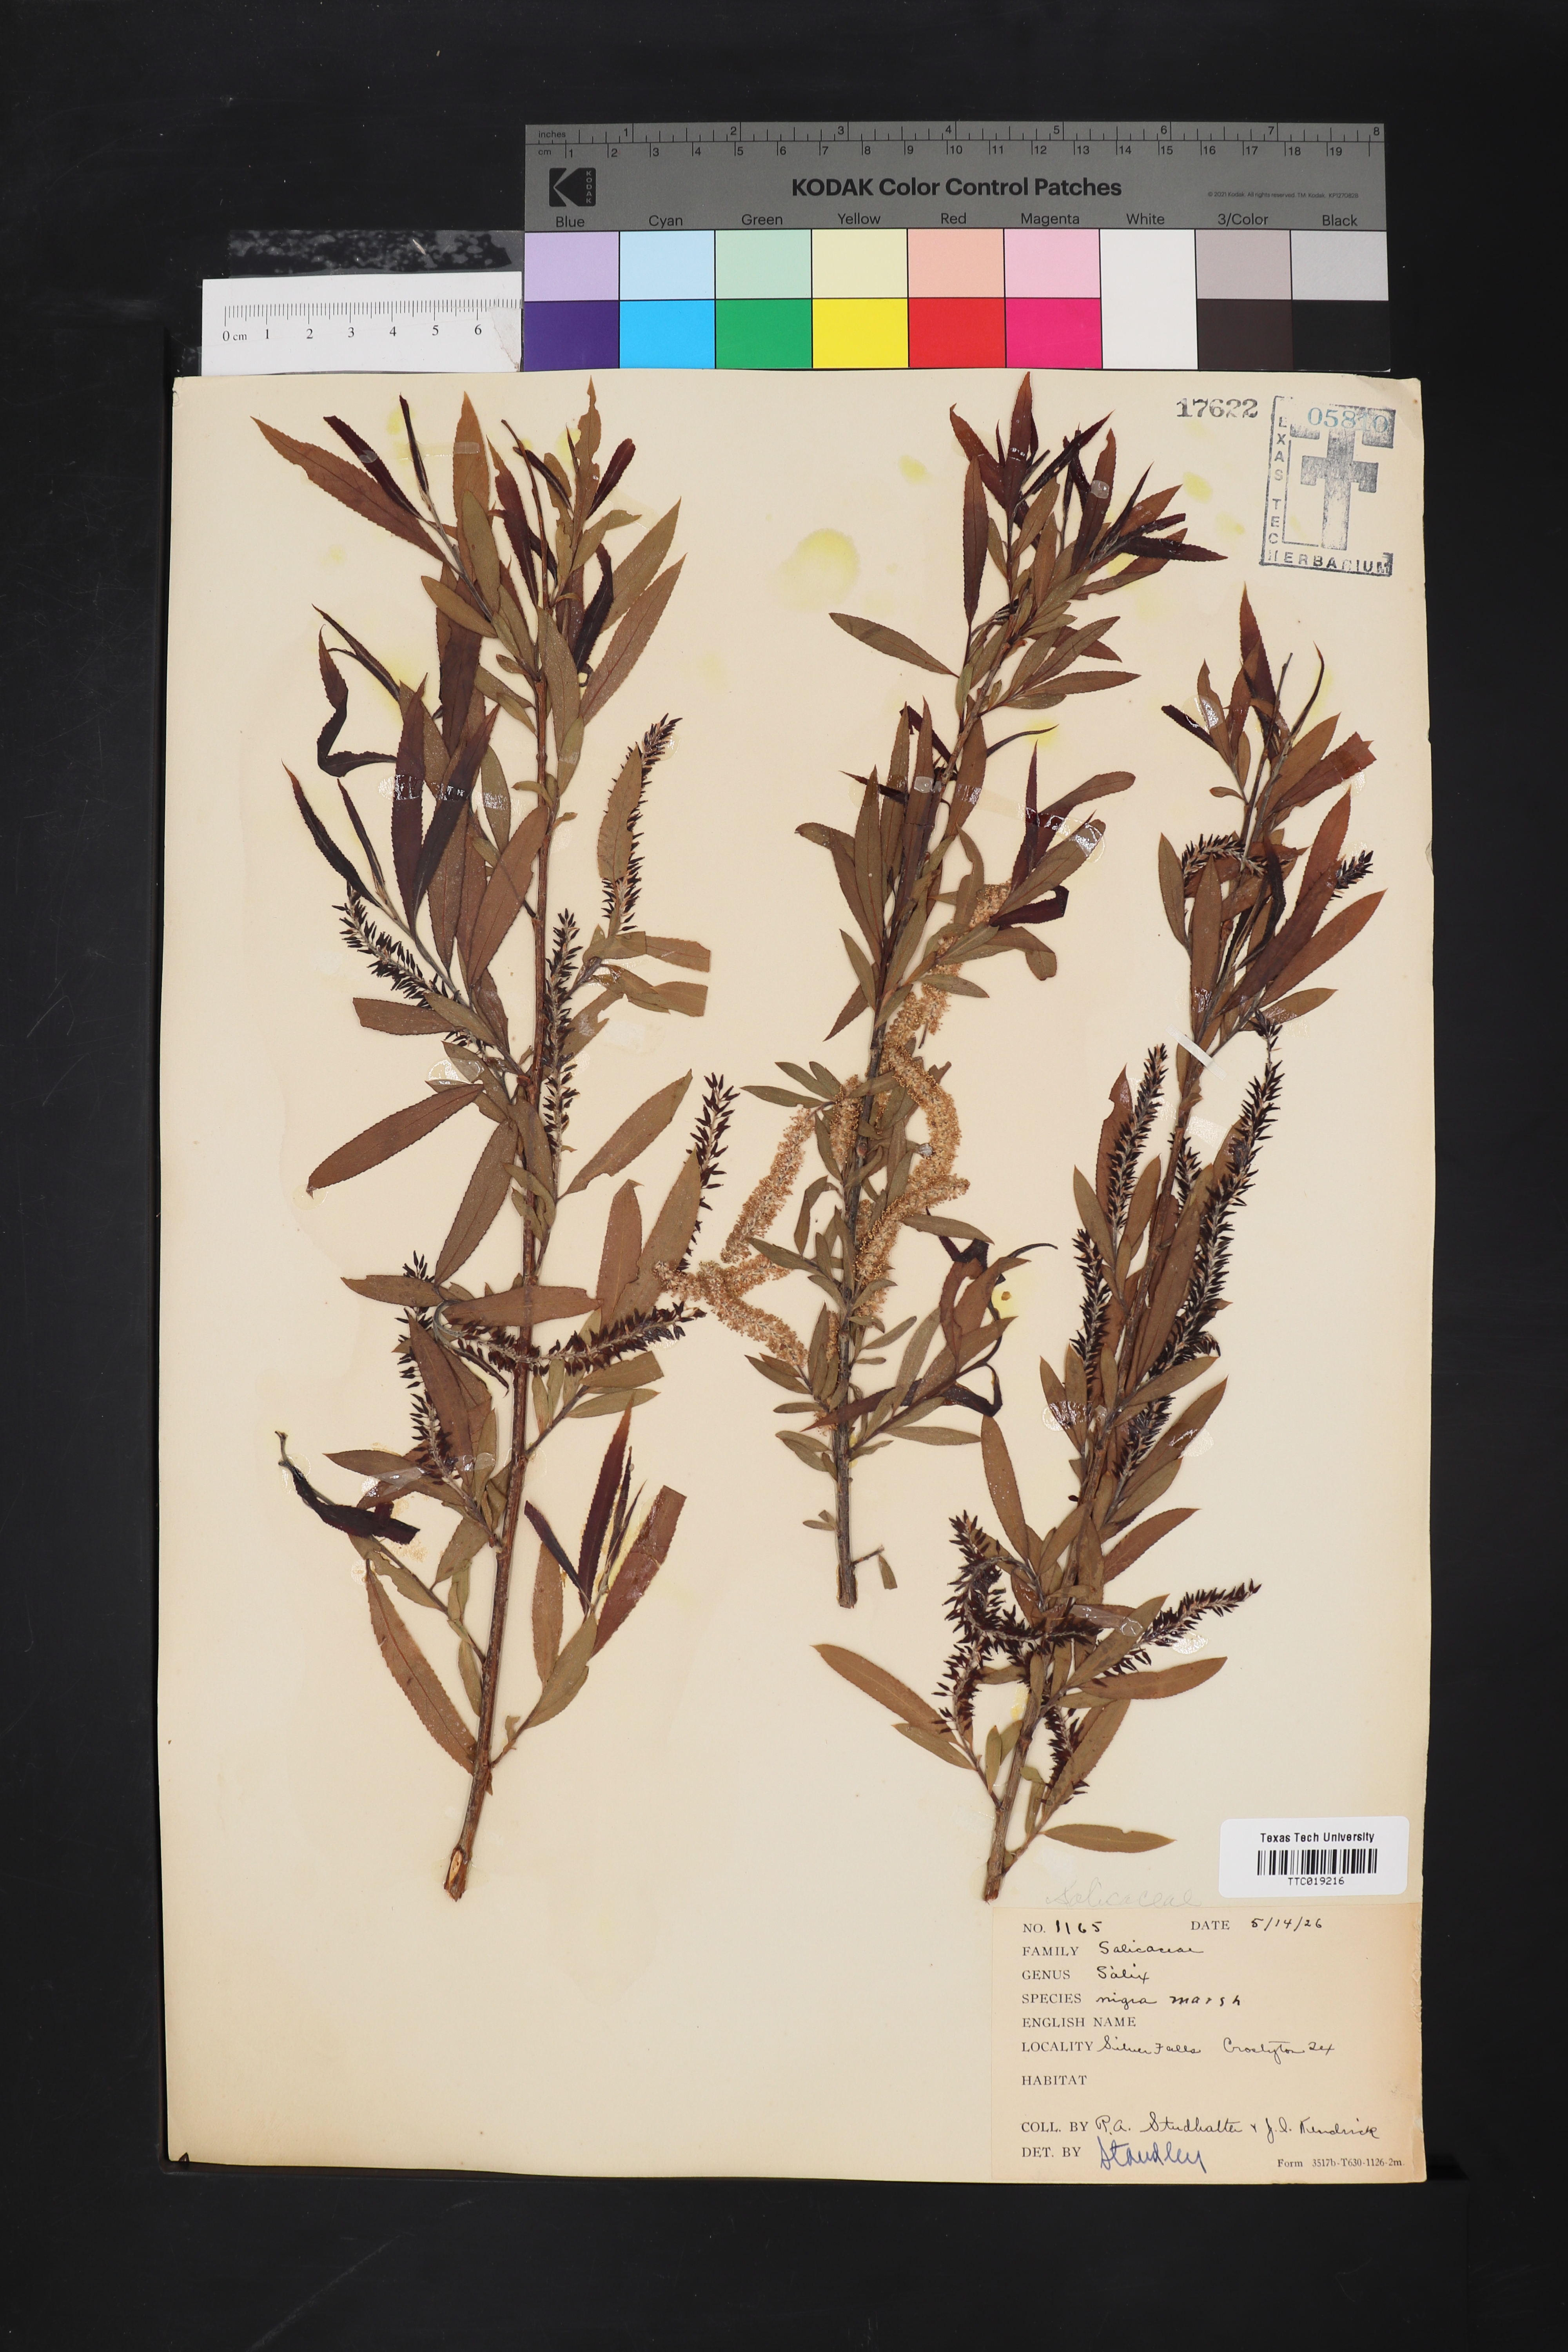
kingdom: Plantae
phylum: Tracheophyta
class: Magnoliopsida
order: Malpighiales
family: Salicaceae
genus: Salix
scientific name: Salix nigra
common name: Black willow
